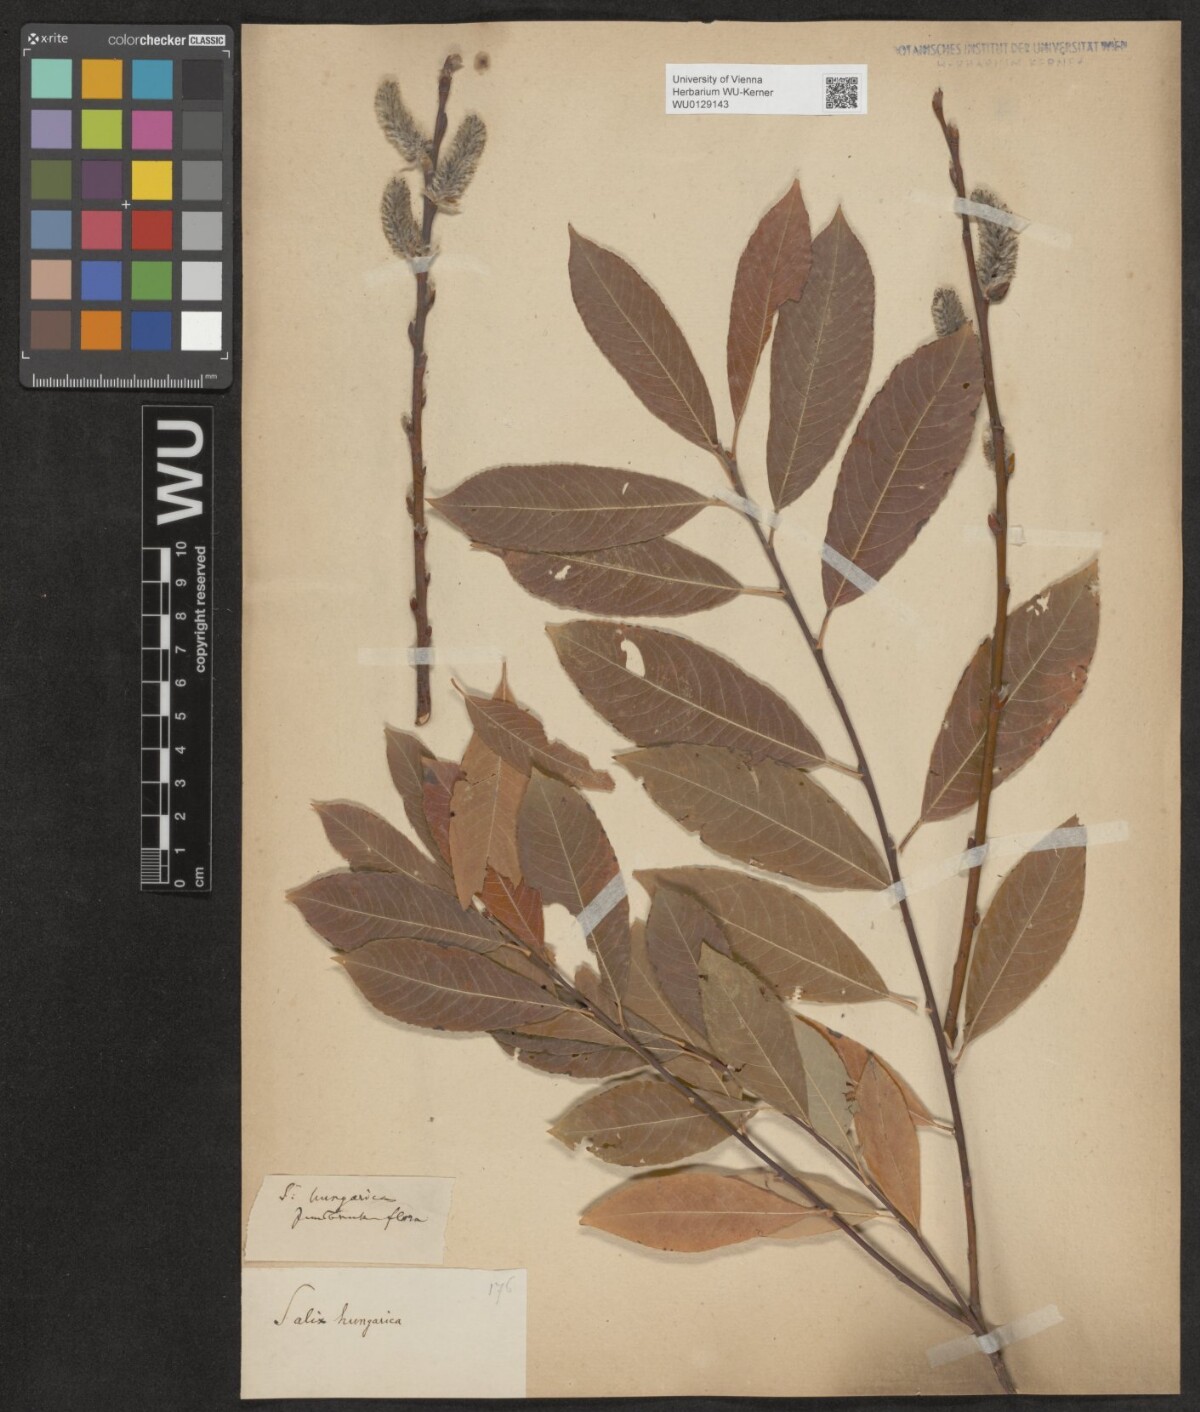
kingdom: Plantae
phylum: Tracheophyta
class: Magnoliopsida
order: Malpighiales
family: Salicaceae
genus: Salix
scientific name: Salix erdingeri
